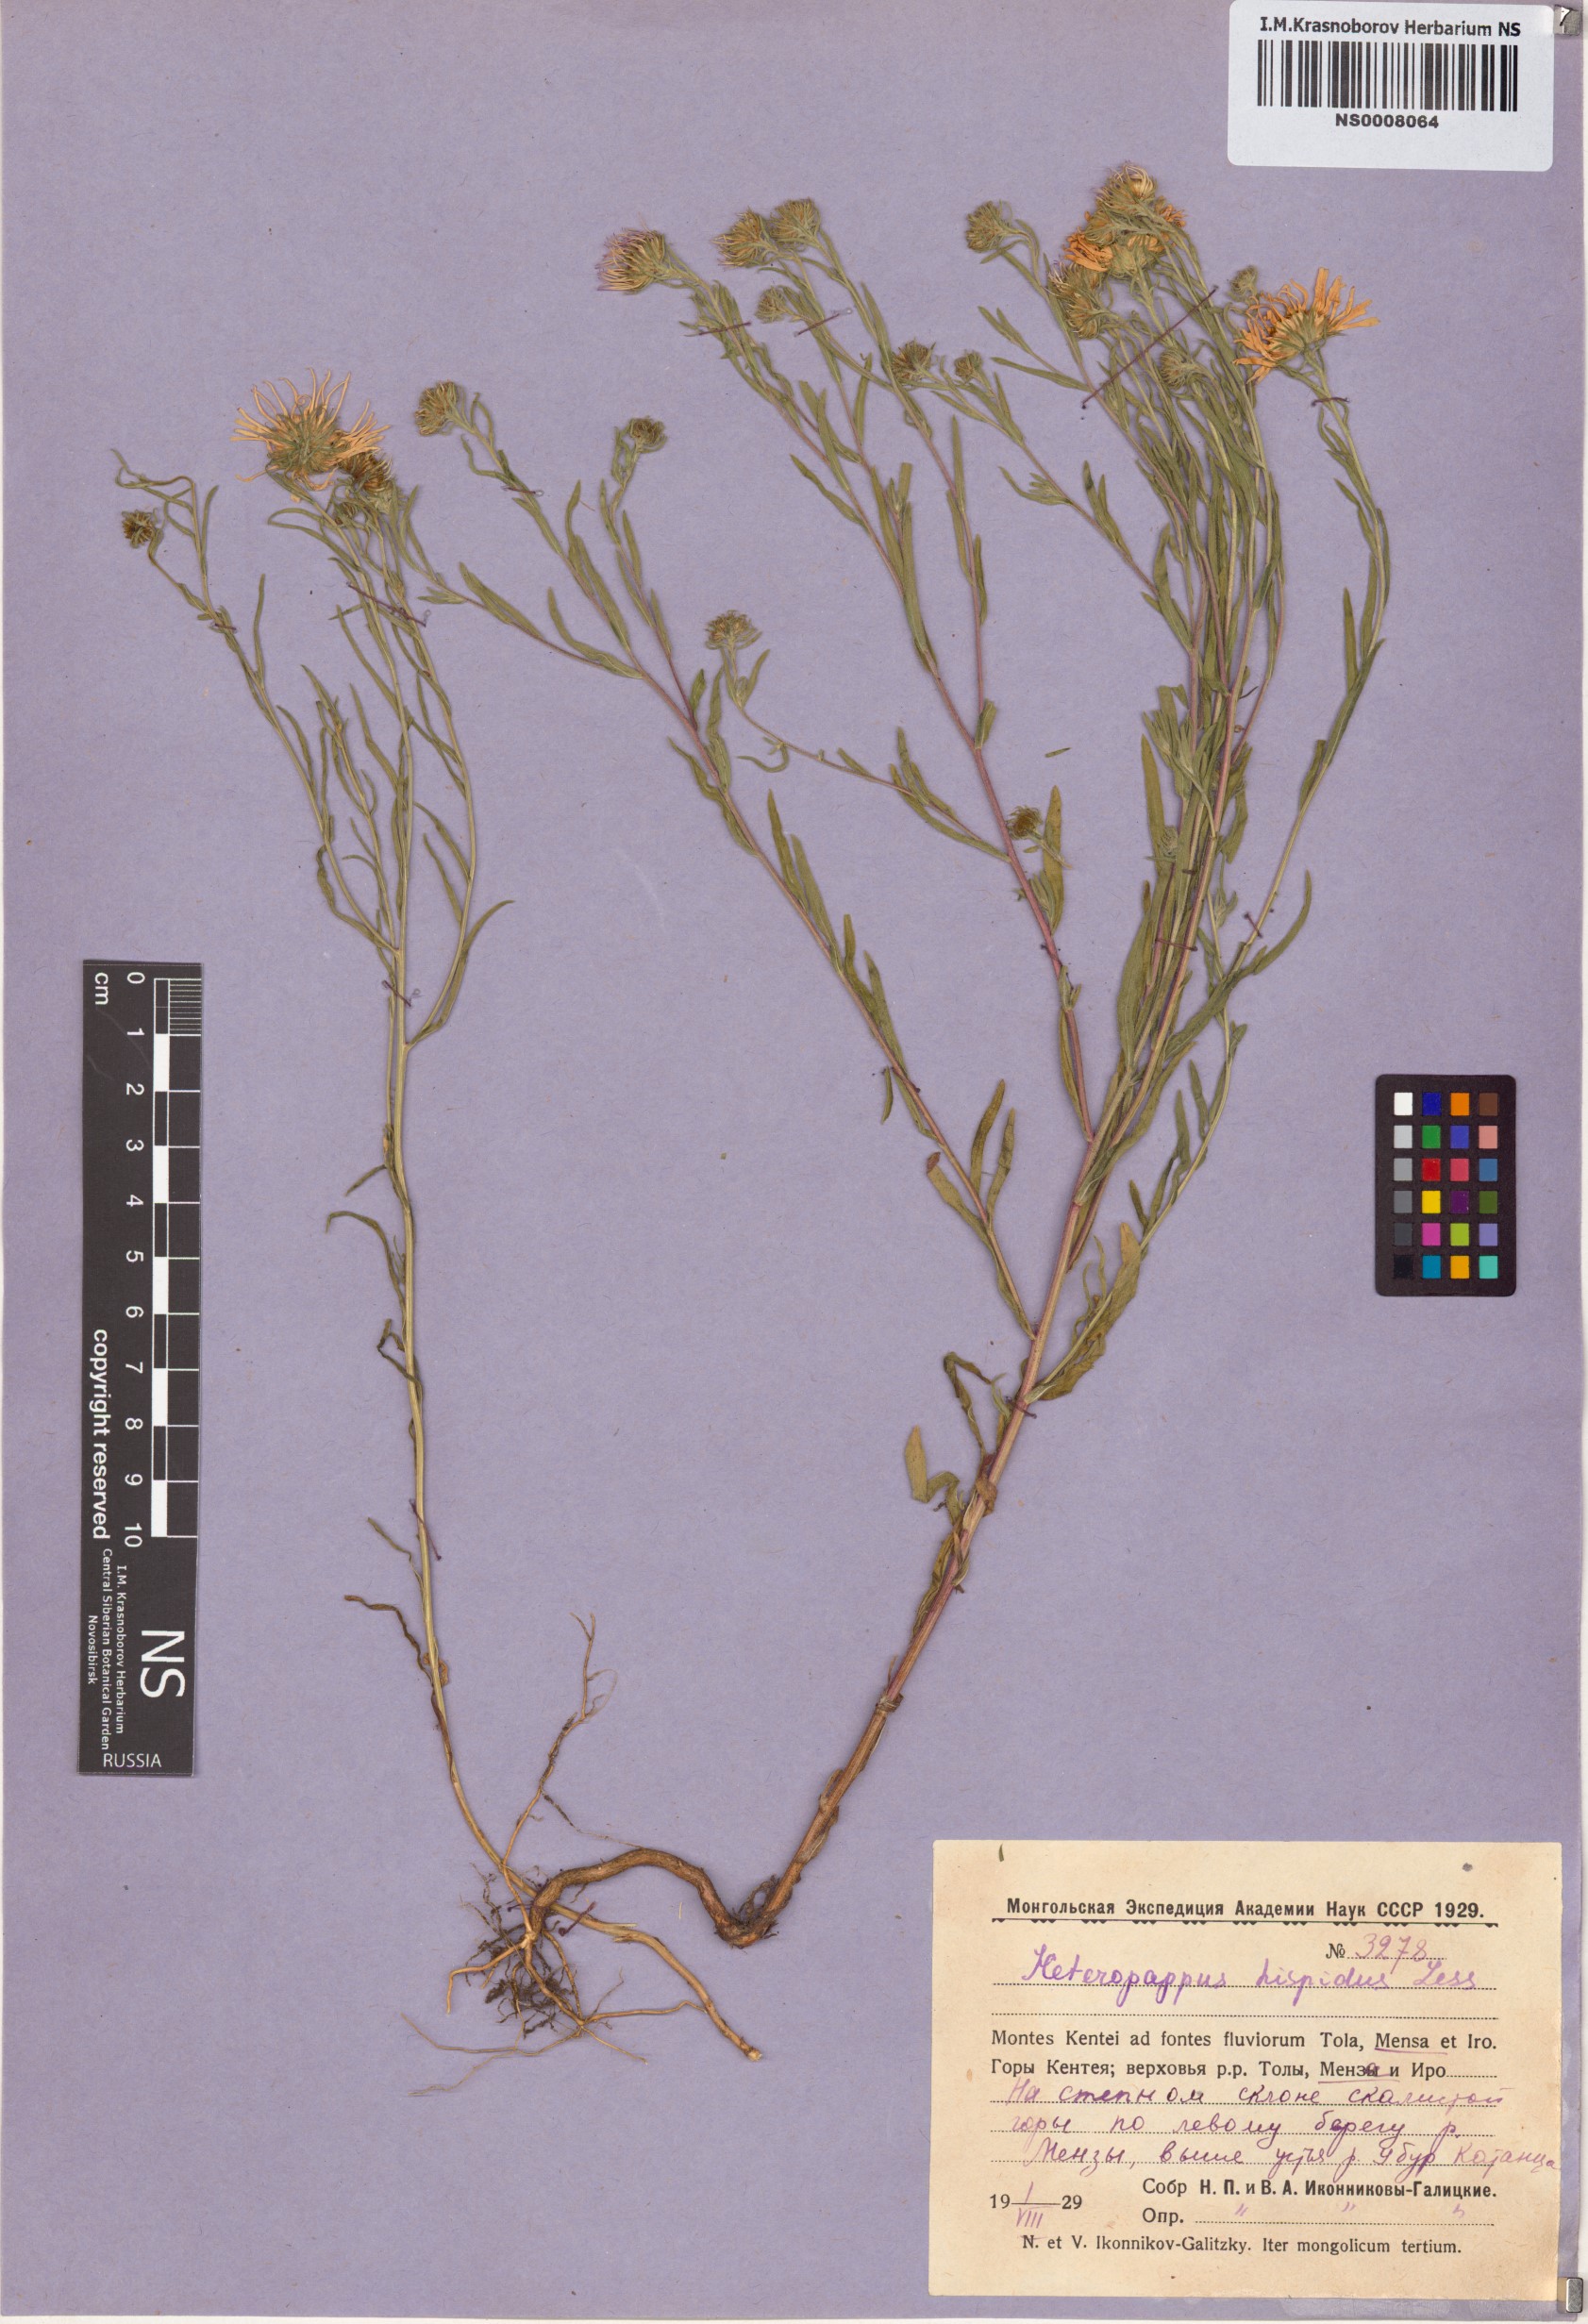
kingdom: Plantae
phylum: Tracheophyta
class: Magnoliopsida
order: Asterales
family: Asteraceae
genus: Heteropappus
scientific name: Heteropappus hispidus
